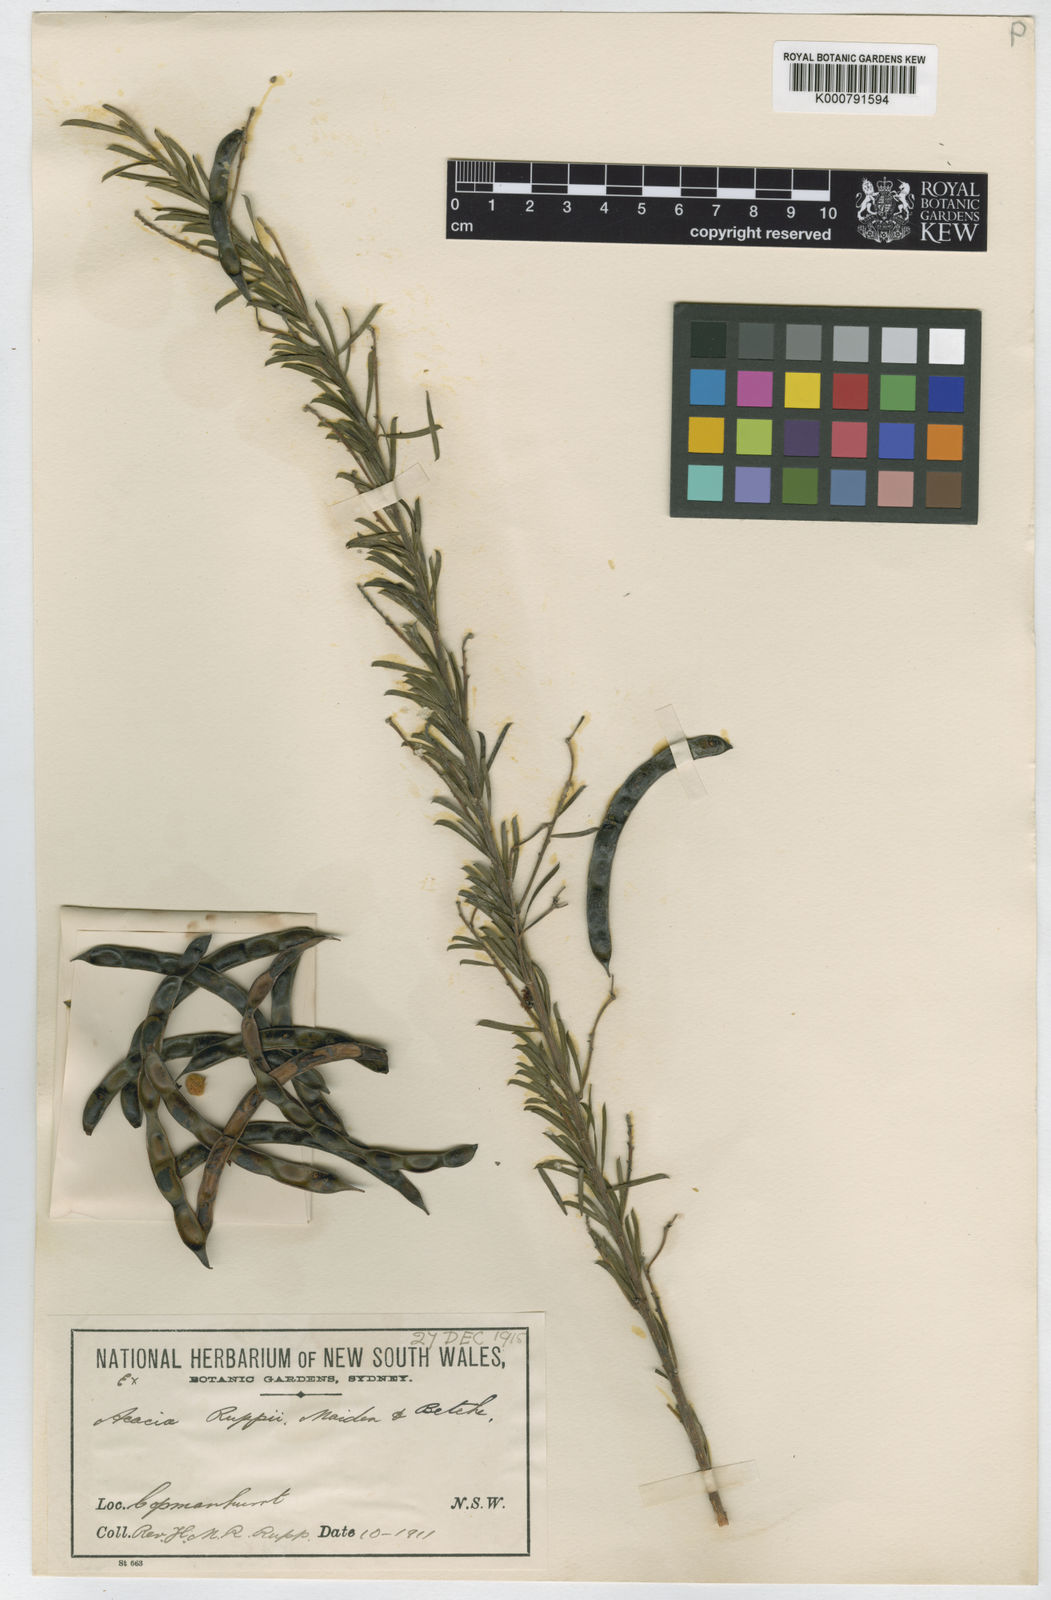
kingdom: Plantae
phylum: Tracheophyta
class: Magnoliopsida
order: Fabales
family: Fabaceae
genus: Acacia
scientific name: Acacia ruppii
